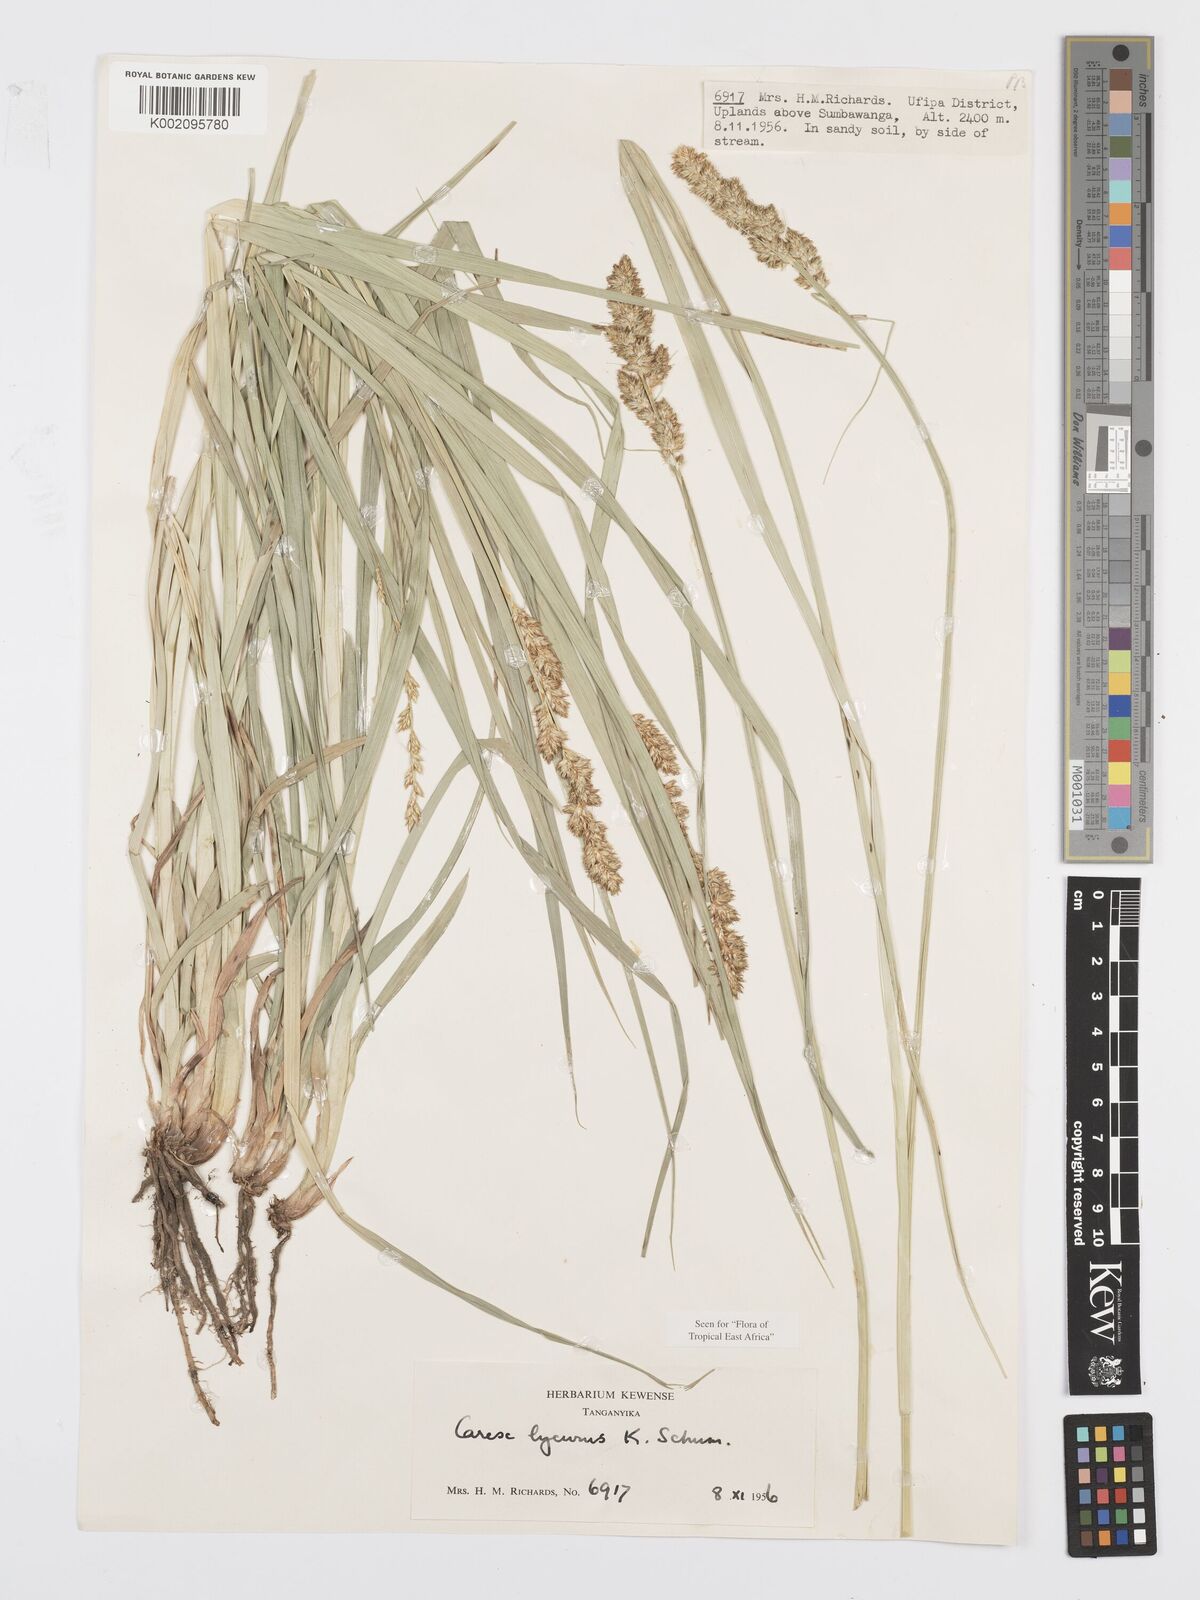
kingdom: Plantae
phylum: Tracheophyta
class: Liliopsida
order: Poales
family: Cyperaceae
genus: Carex
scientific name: Carex lycurus
